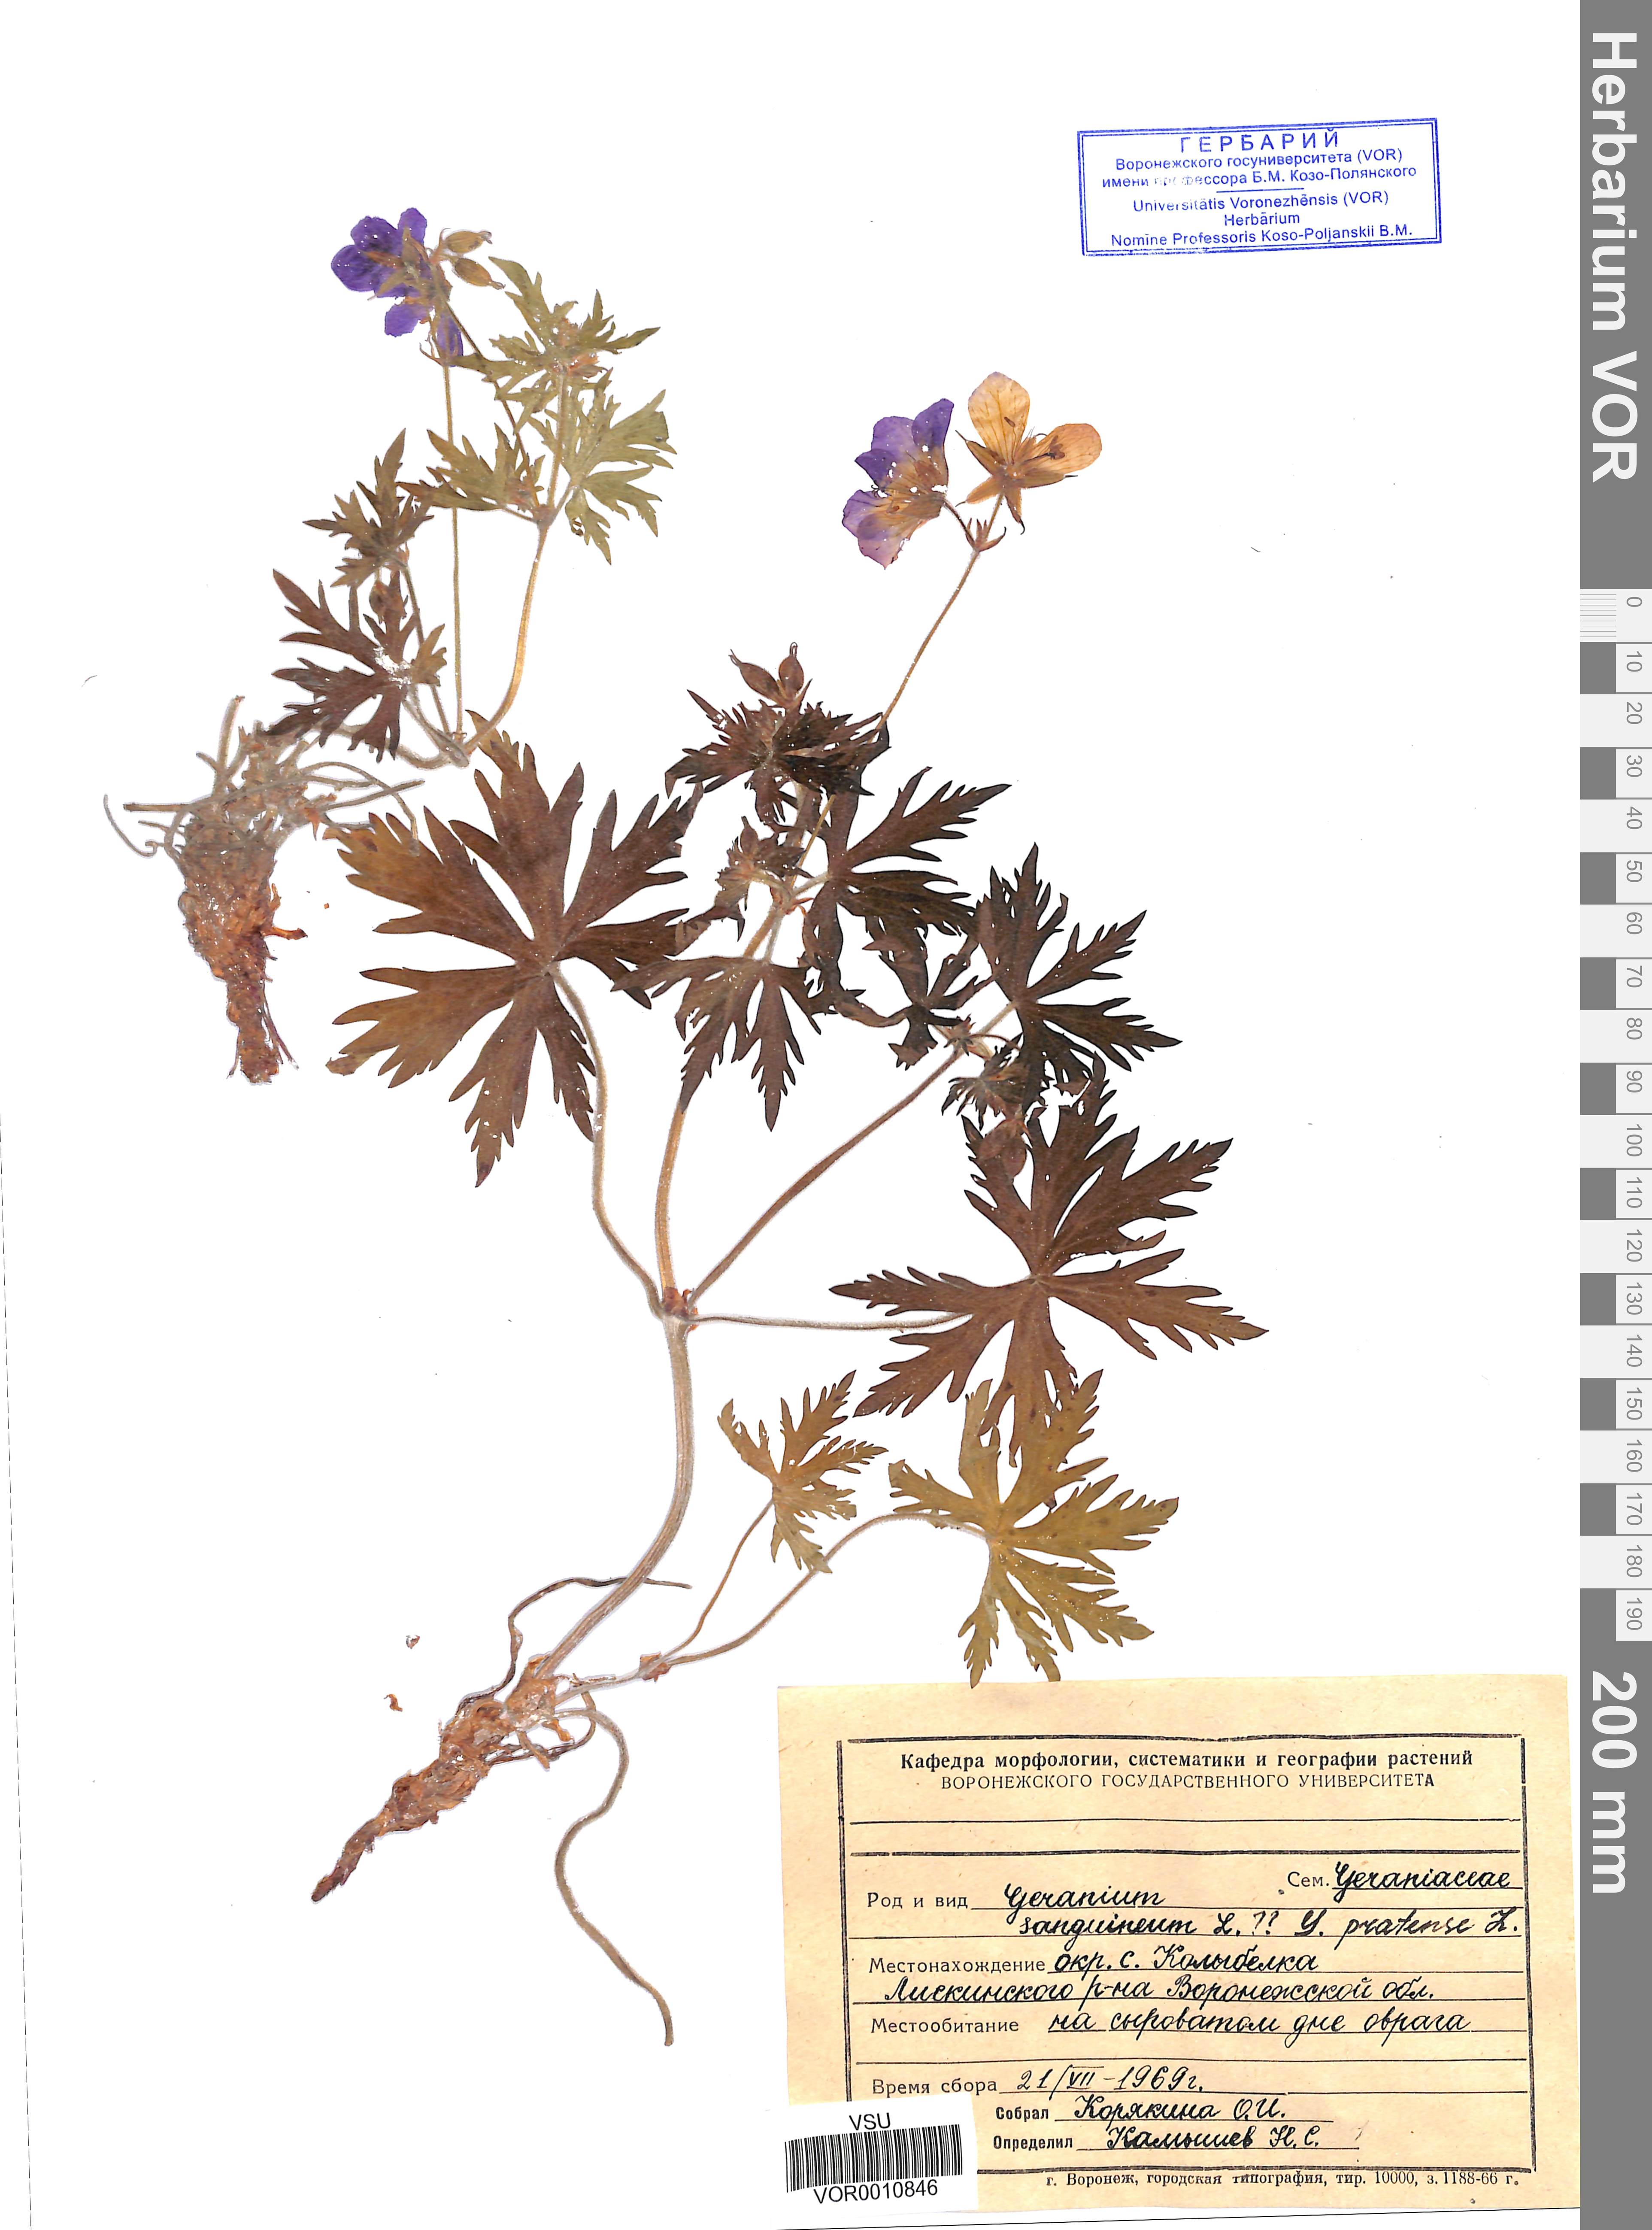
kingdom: Plantae
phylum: Tracheophyta
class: Magnoliopsida
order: Geraniales
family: Geraniaceae
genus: Geranium
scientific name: Geranium pratense
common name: Meadow crane's-bill
